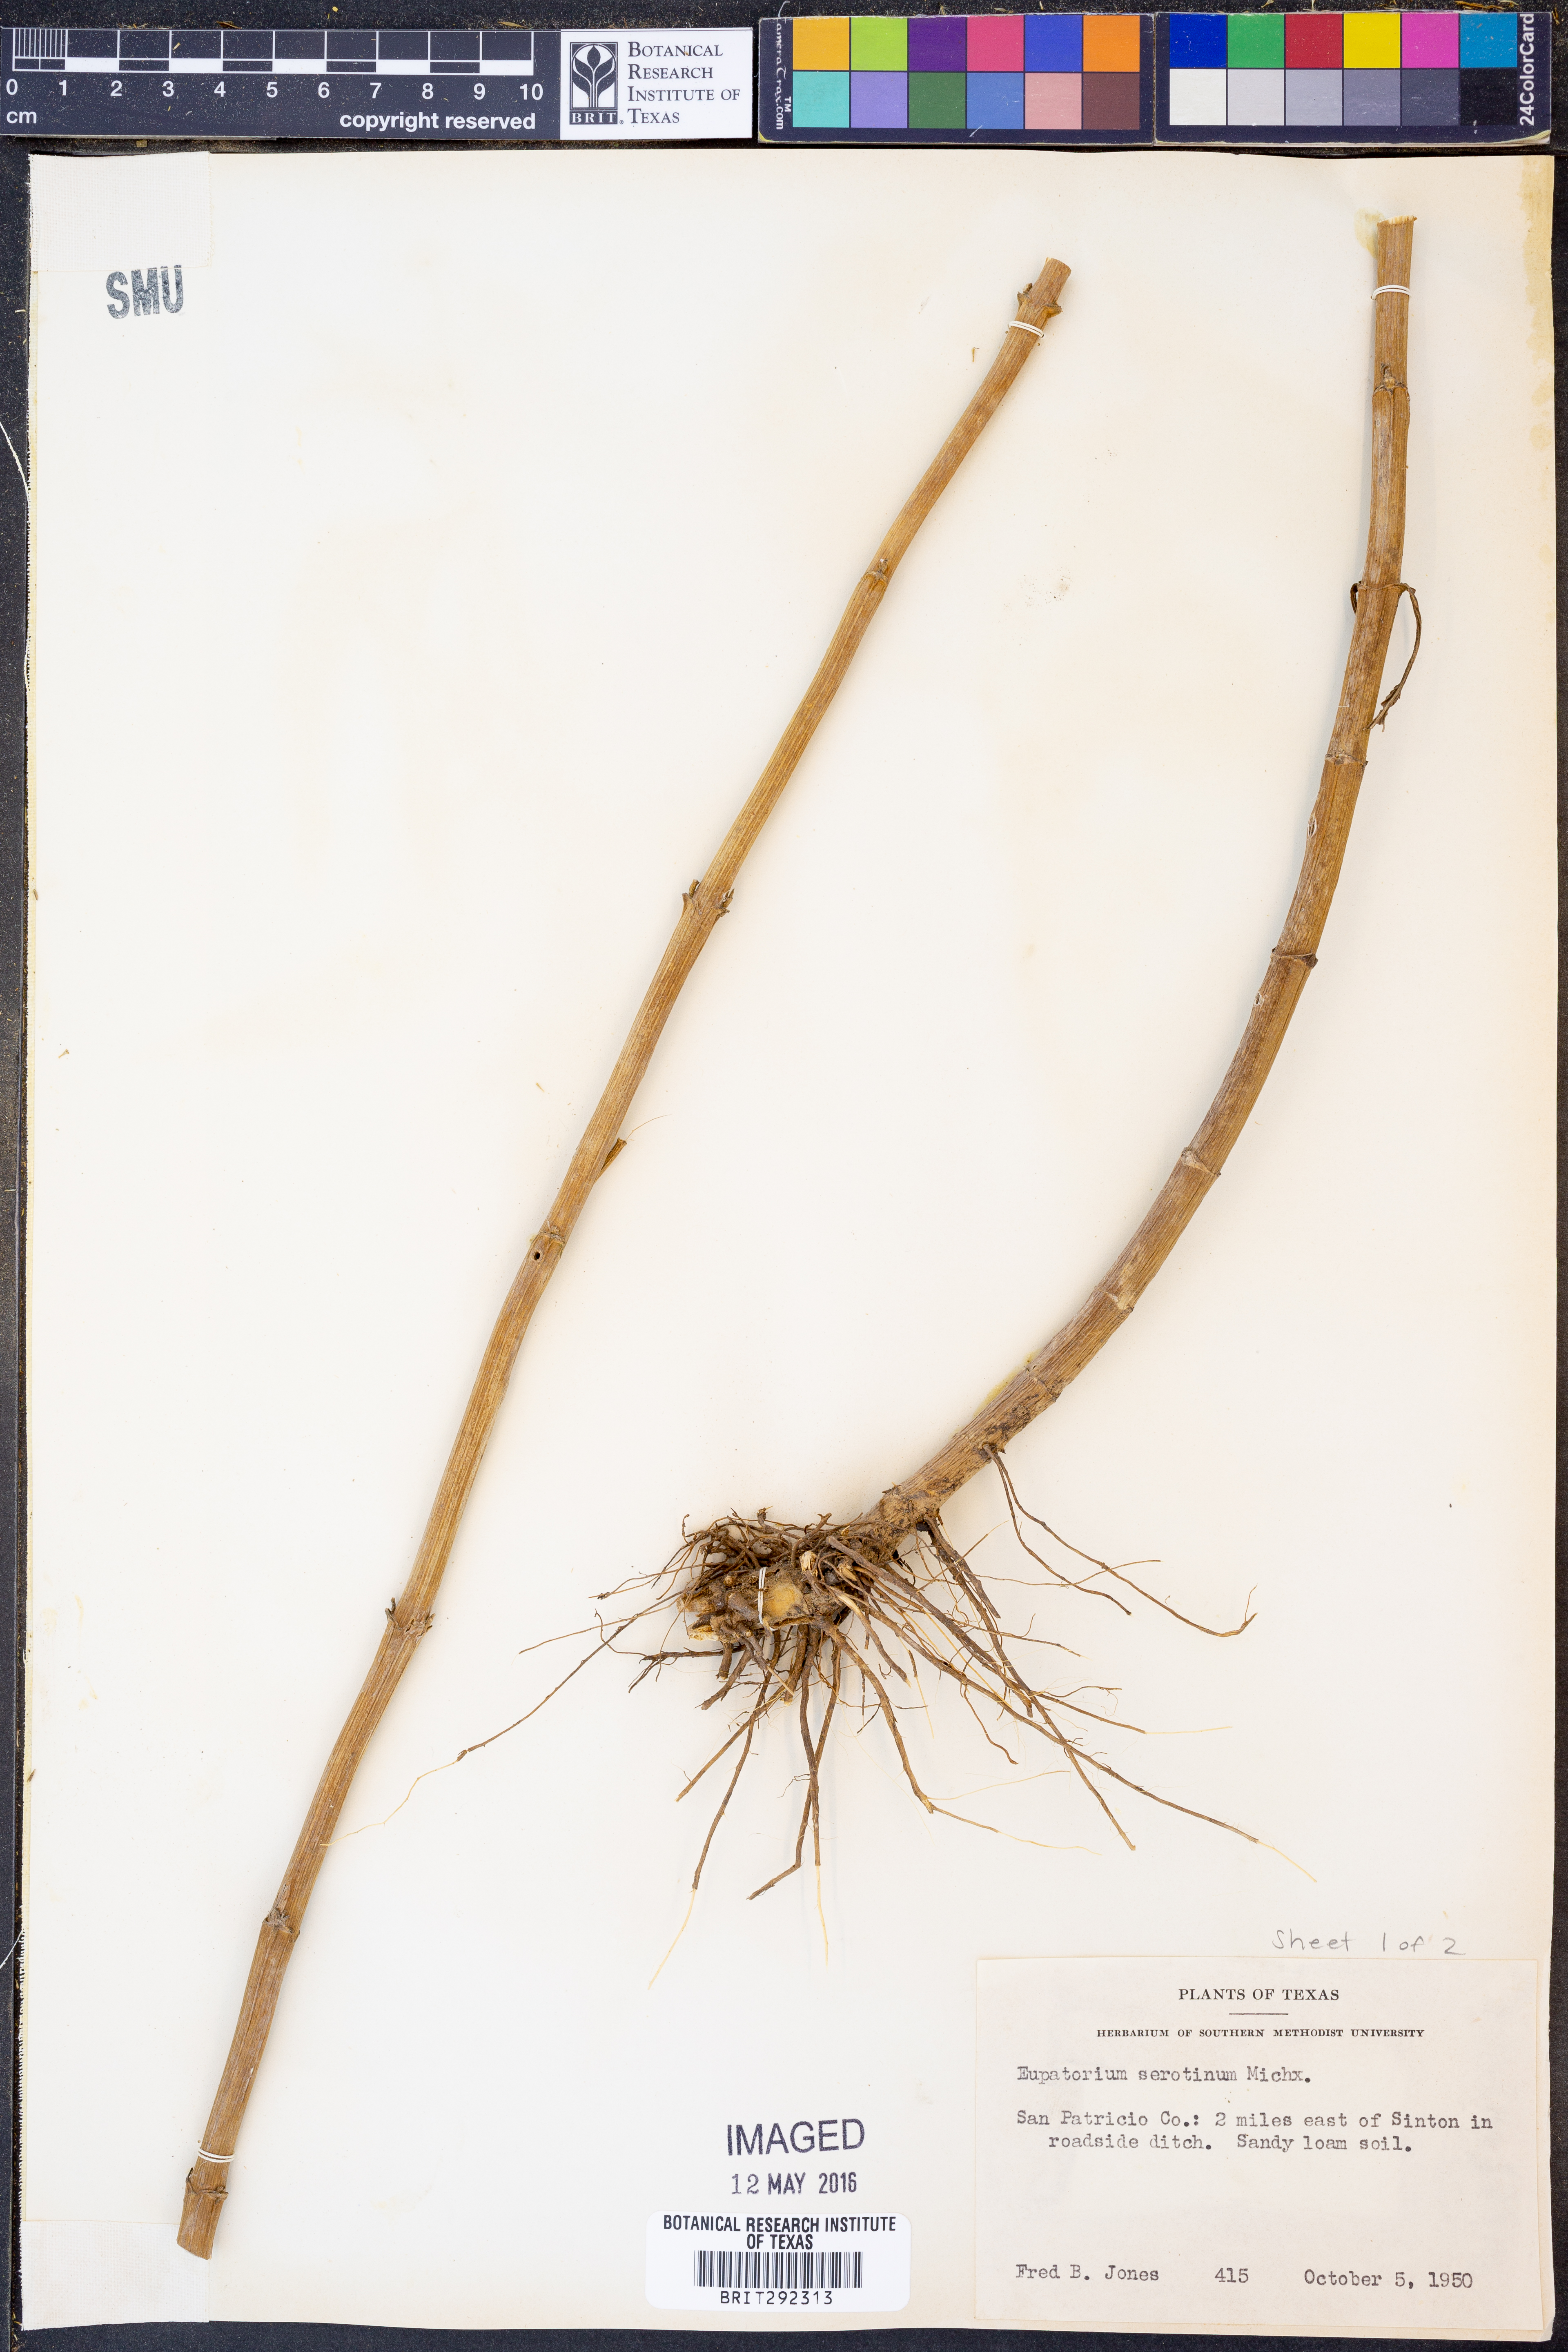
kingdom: Plantae
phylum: Tracheophyta
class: Magnoliopsida
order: Asterales
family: Asteraceae
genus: Eupatorium
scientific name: Eupatorium serotinum
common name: Late boneset
